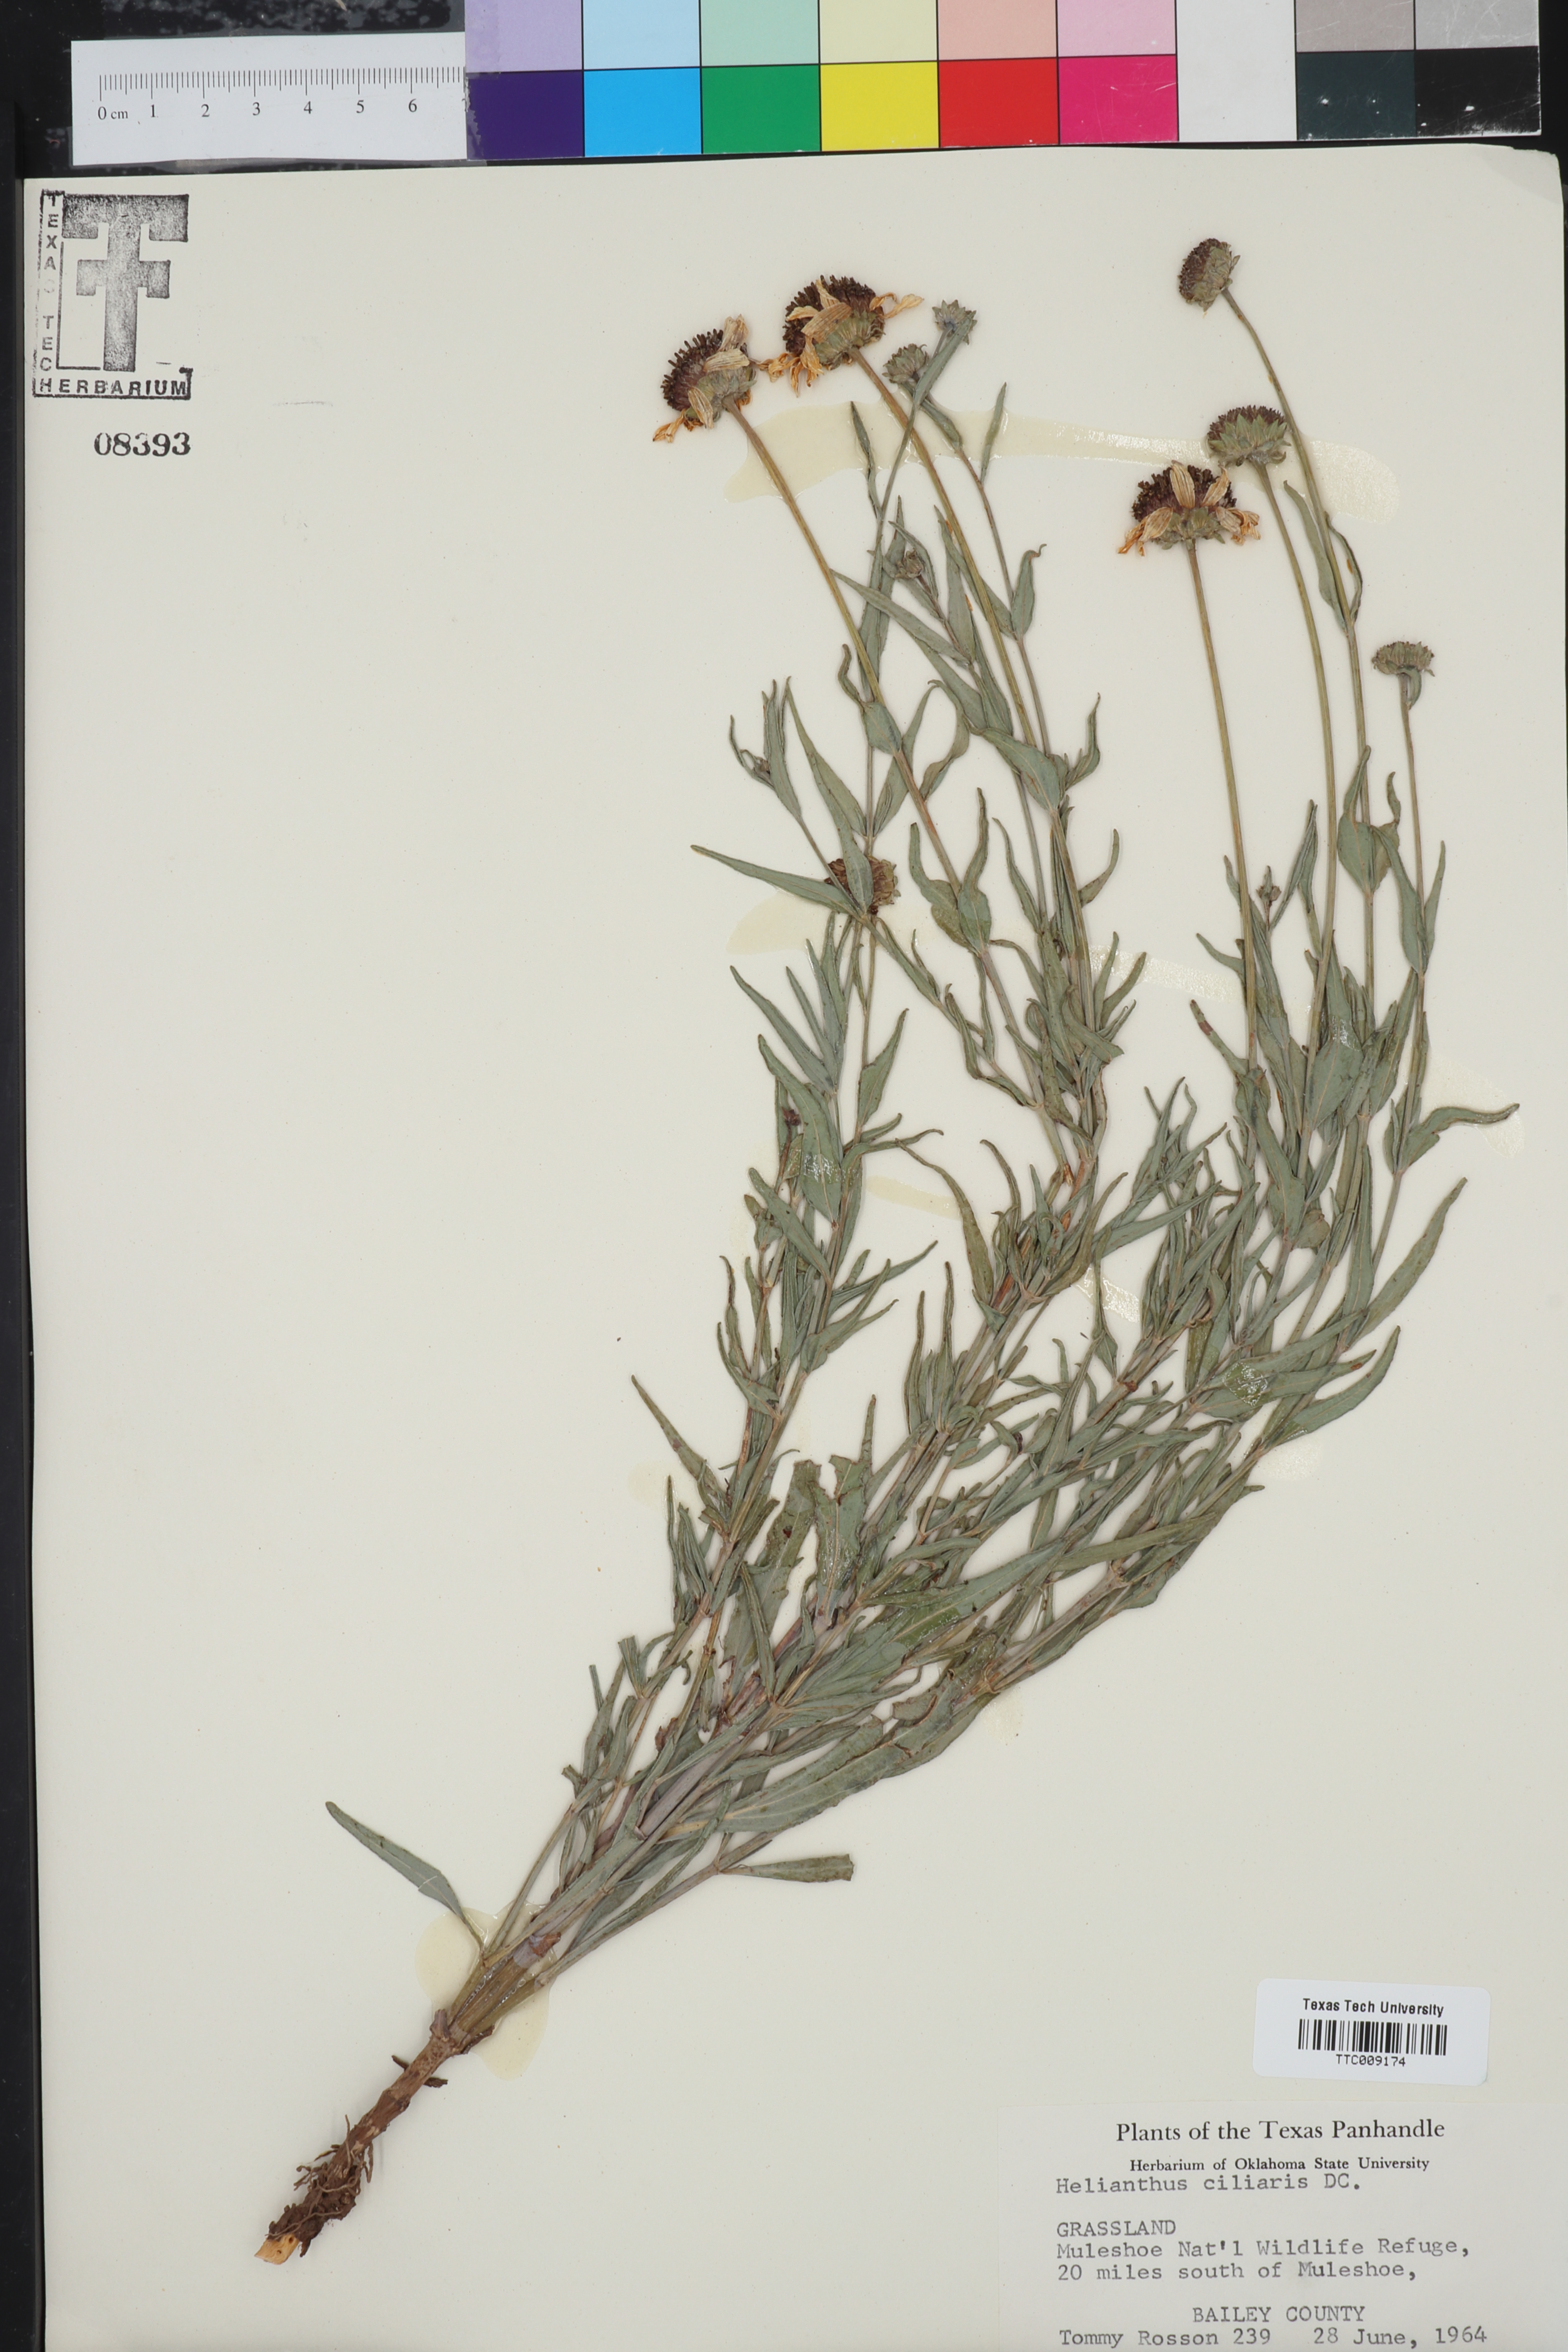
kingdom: Plantae
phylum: Tracheophyta
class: Magnoliopsida
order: Asterales
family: Asteraceae
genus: Helianthus
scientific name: Helianthus ciliaris
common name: Texas blueweed
